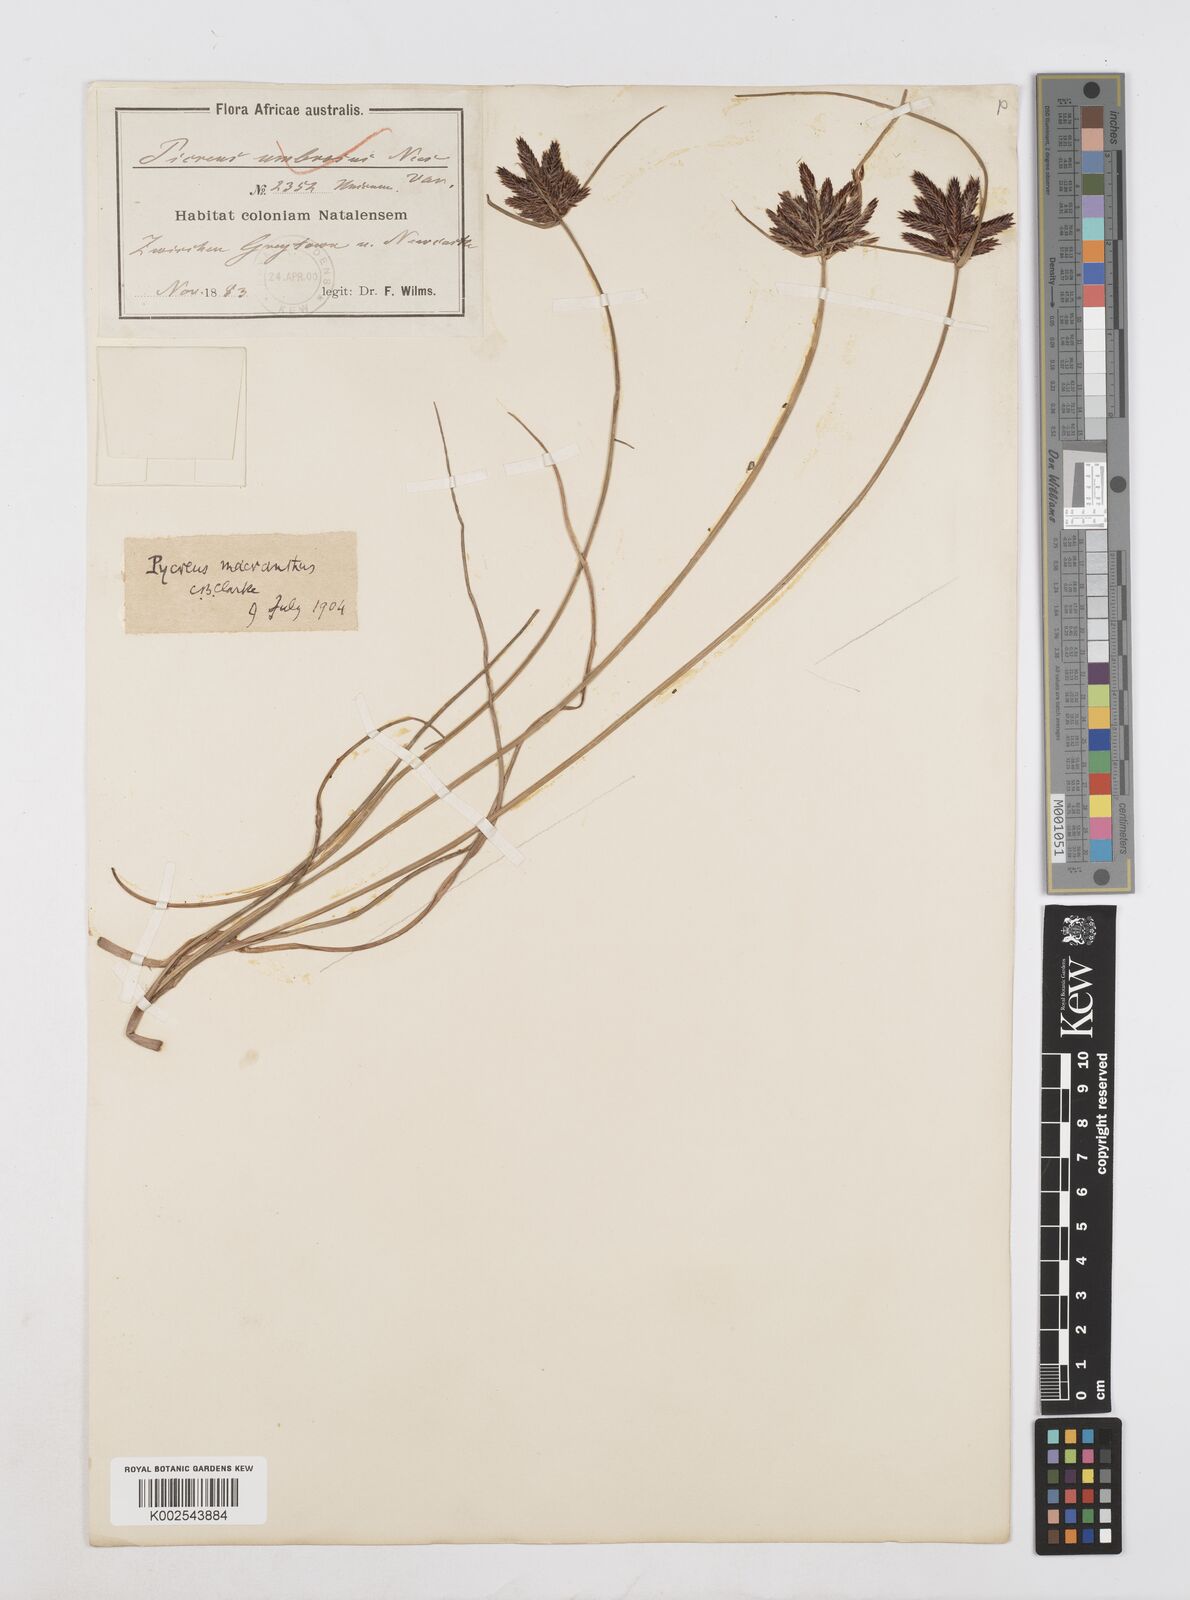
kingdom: Plantae
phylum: Tracheophyta
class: Liliopsida
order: Poales
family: Cyperaceae
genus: Cyperus
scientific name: Cyperus nigricans
